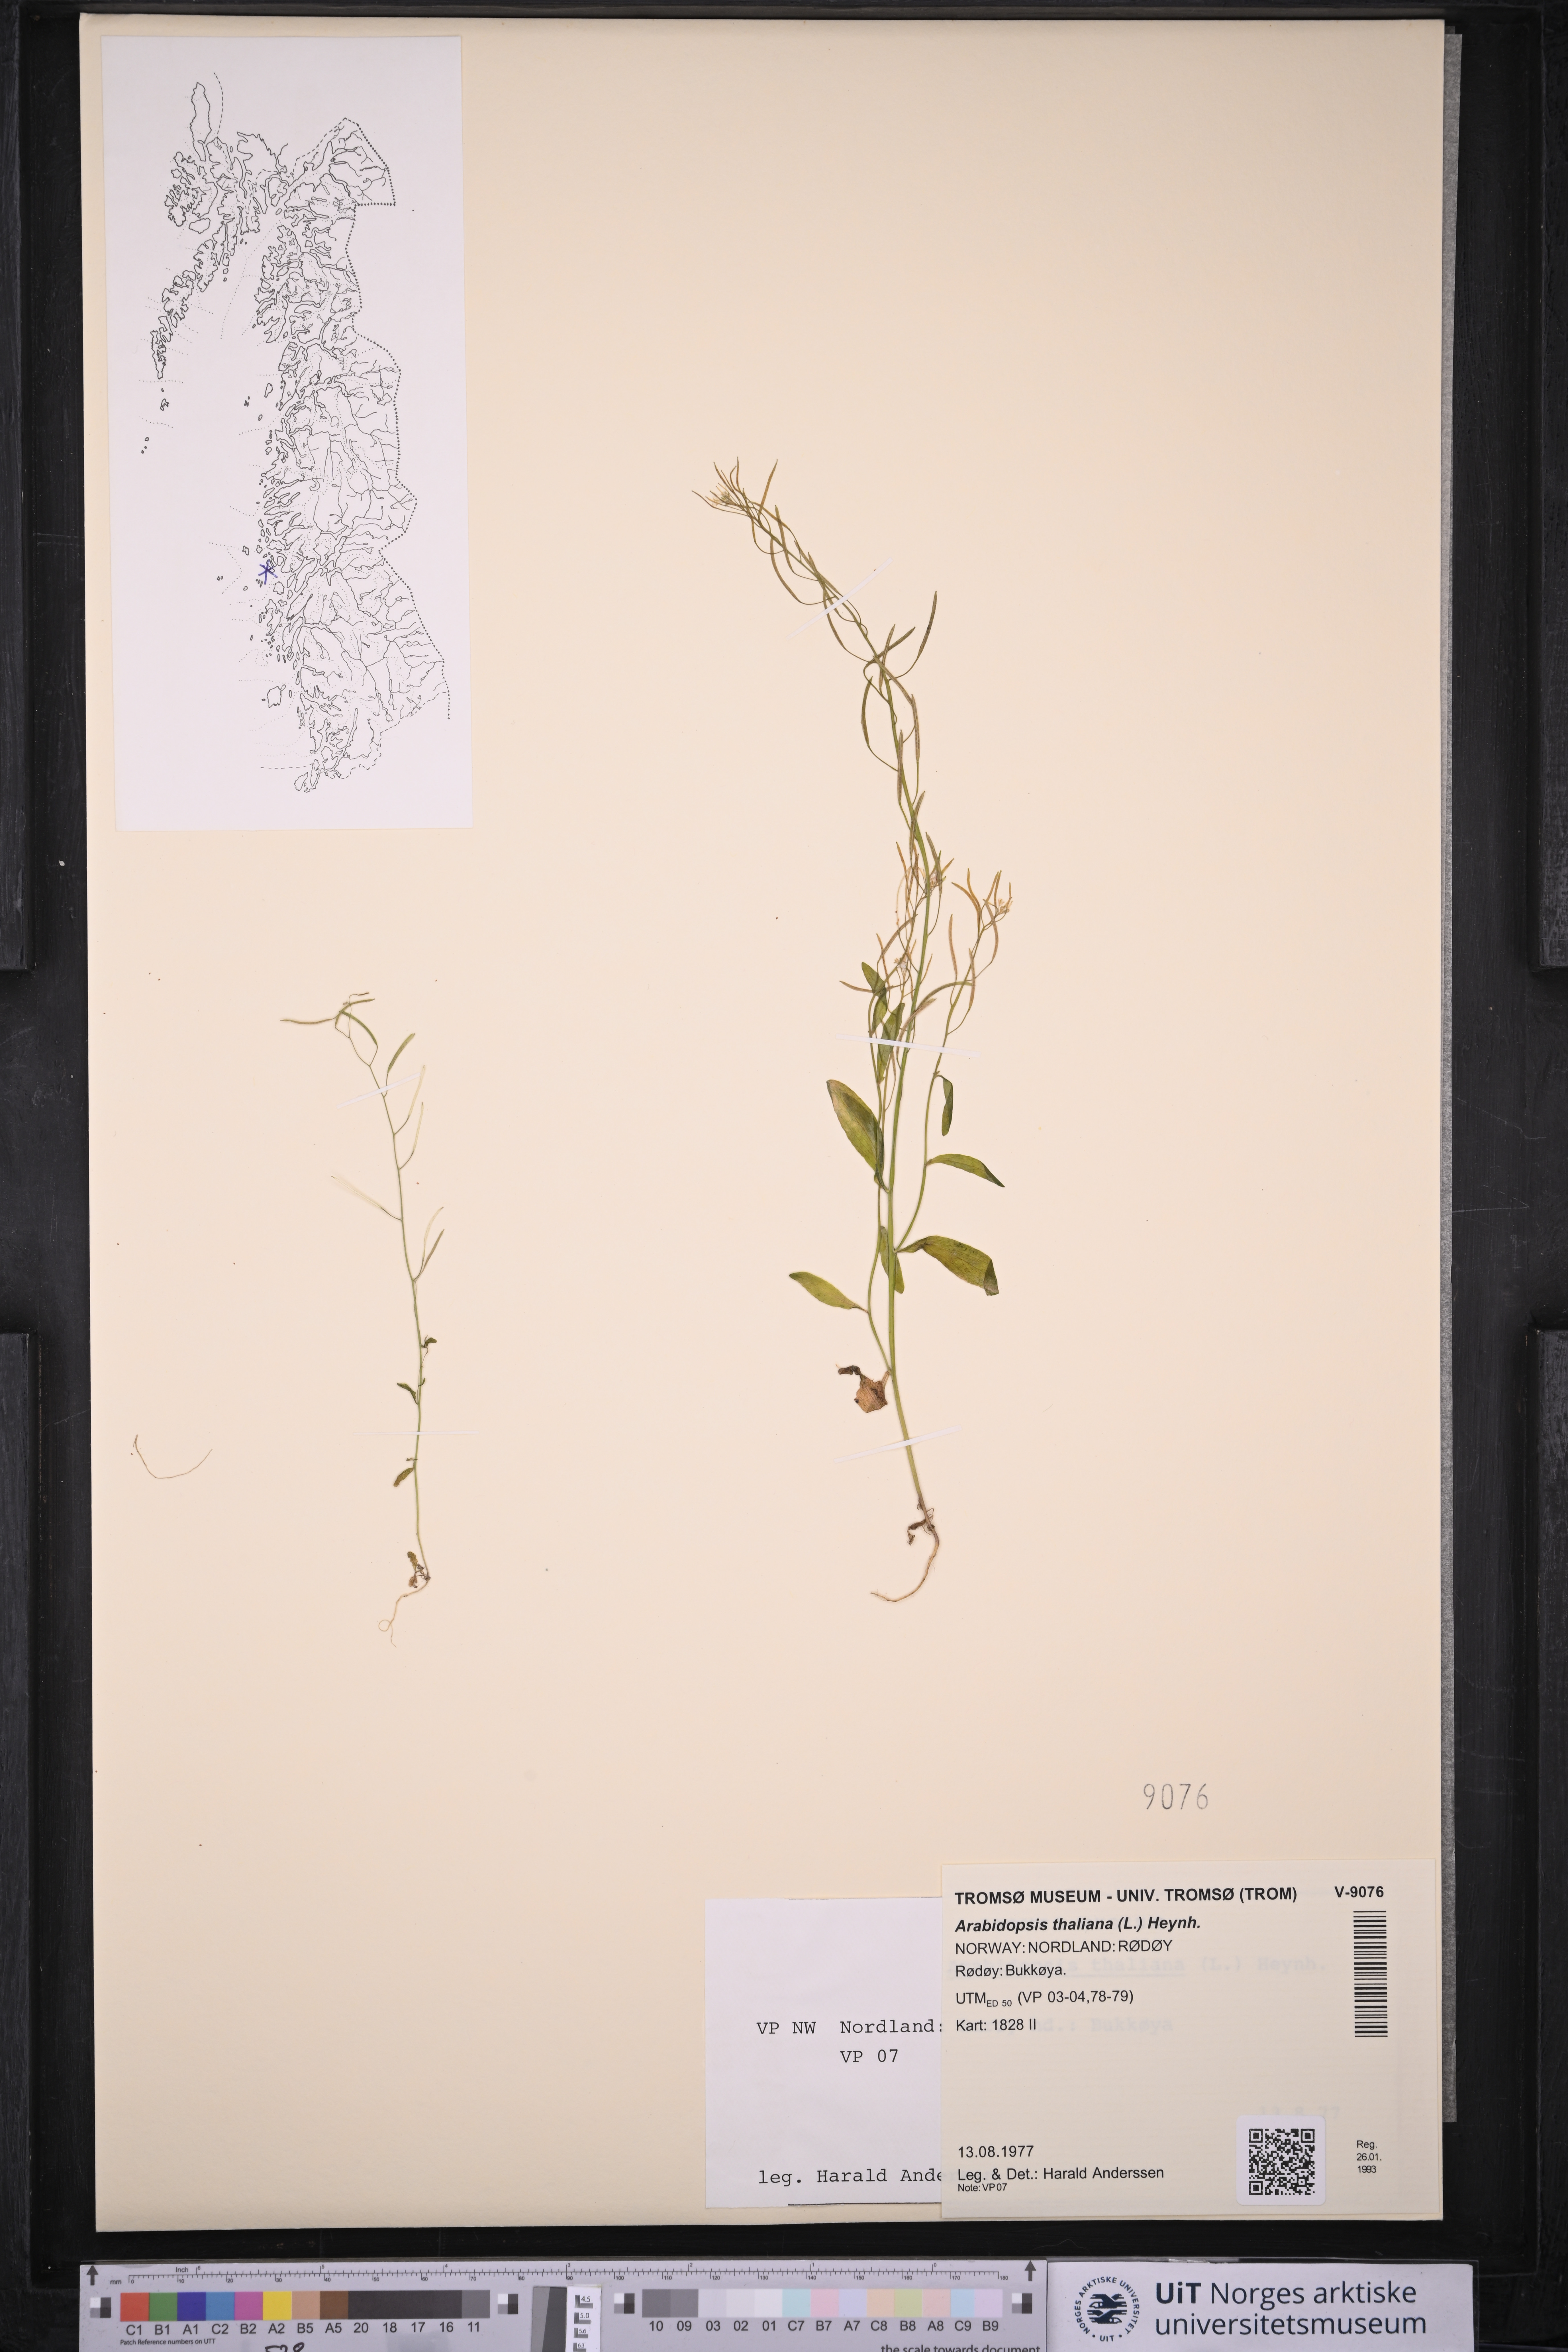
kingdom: Plantae
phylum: Tracheophyta
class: Magnoliopsida
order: Brassicales
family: Brassicaceae
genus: Arabidopsis
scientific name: Arabidopsis thaliana
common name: Thale cress
